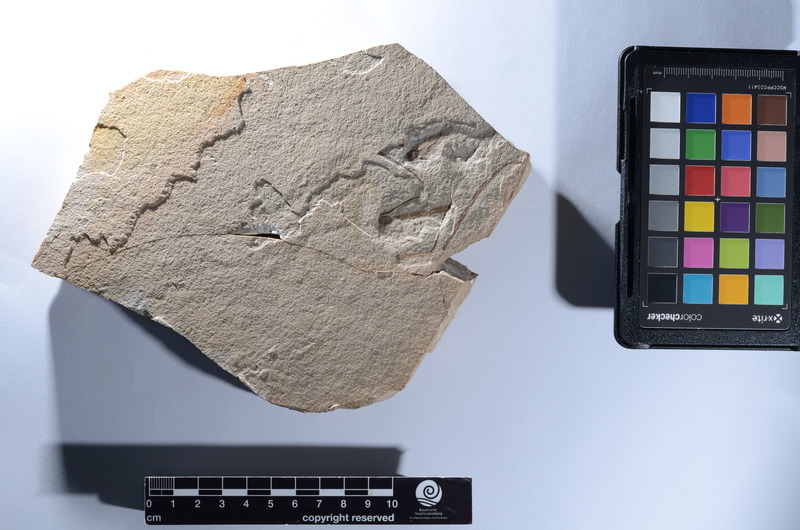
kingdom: Animalia
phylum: Chordata
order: Perciformes
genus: Smerdis
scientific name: Smerdis Perca minuta
